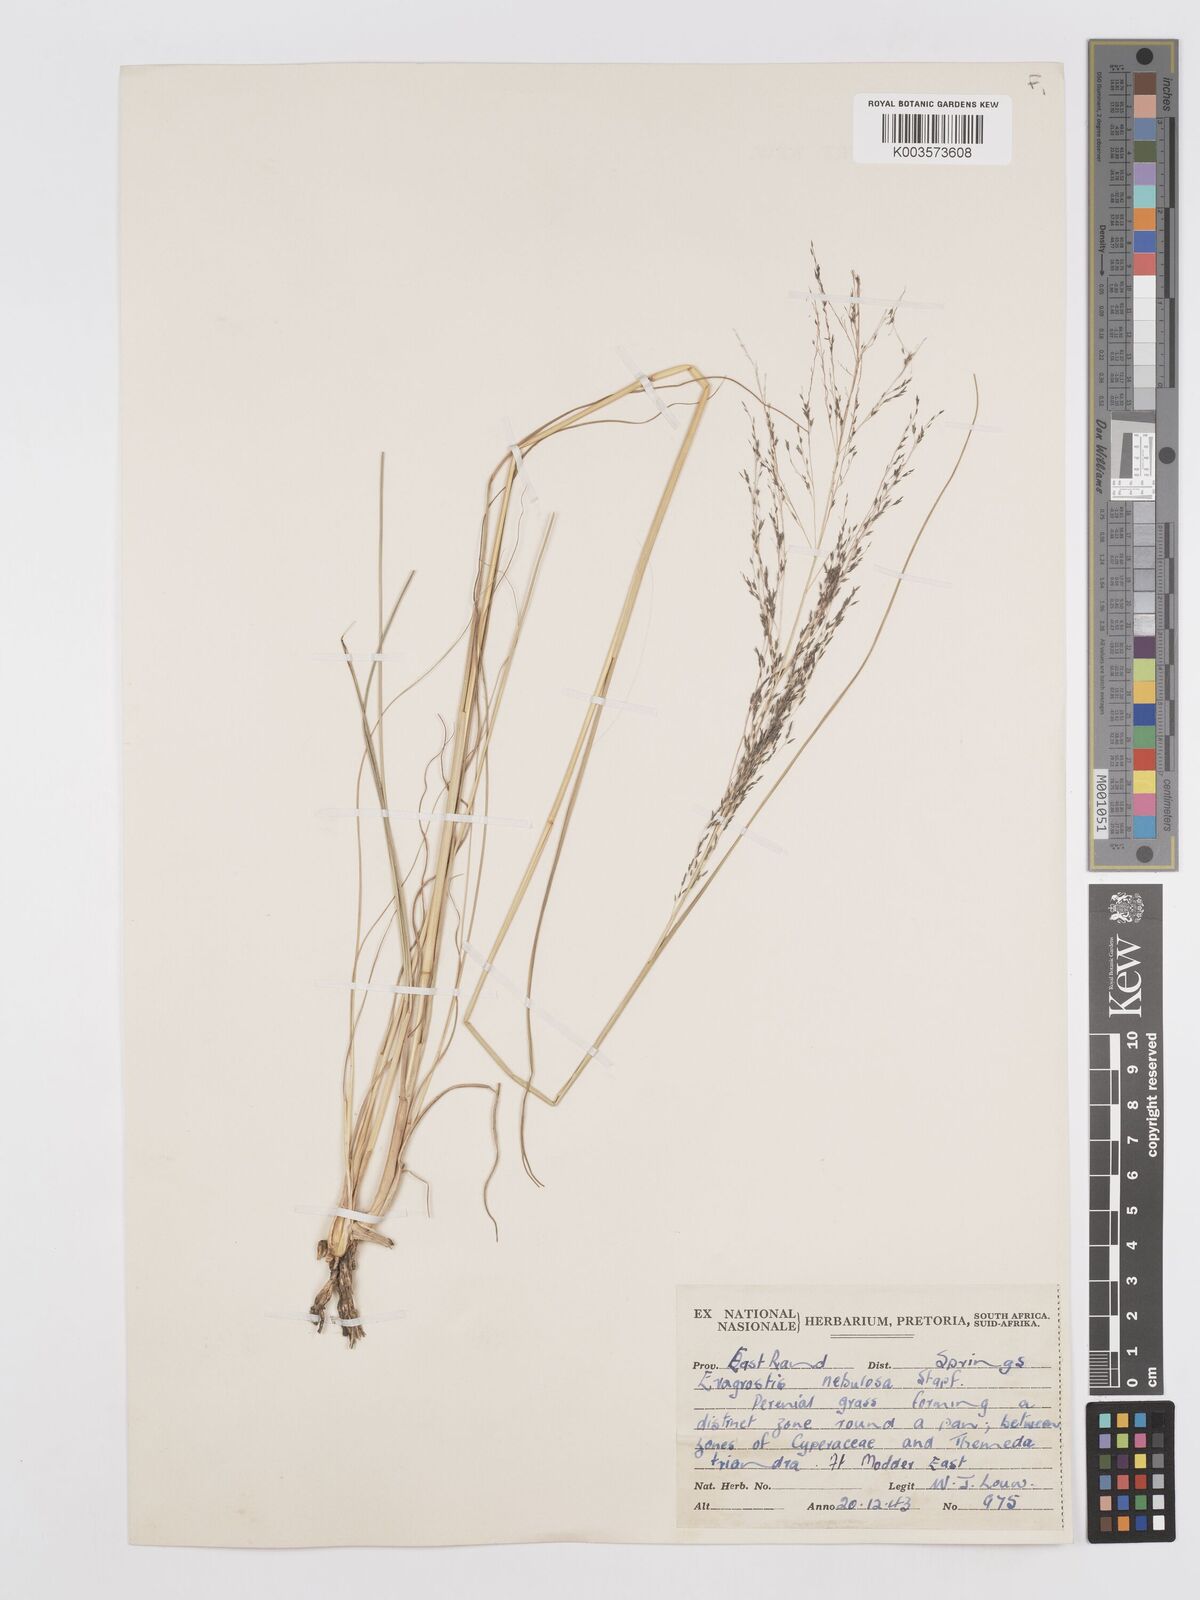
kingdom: Plantae
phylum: Tracheophyta
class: Liliopsida
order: Poales
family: Poaceae
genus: Eragrostis
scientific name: Eragrostis planiculmis
